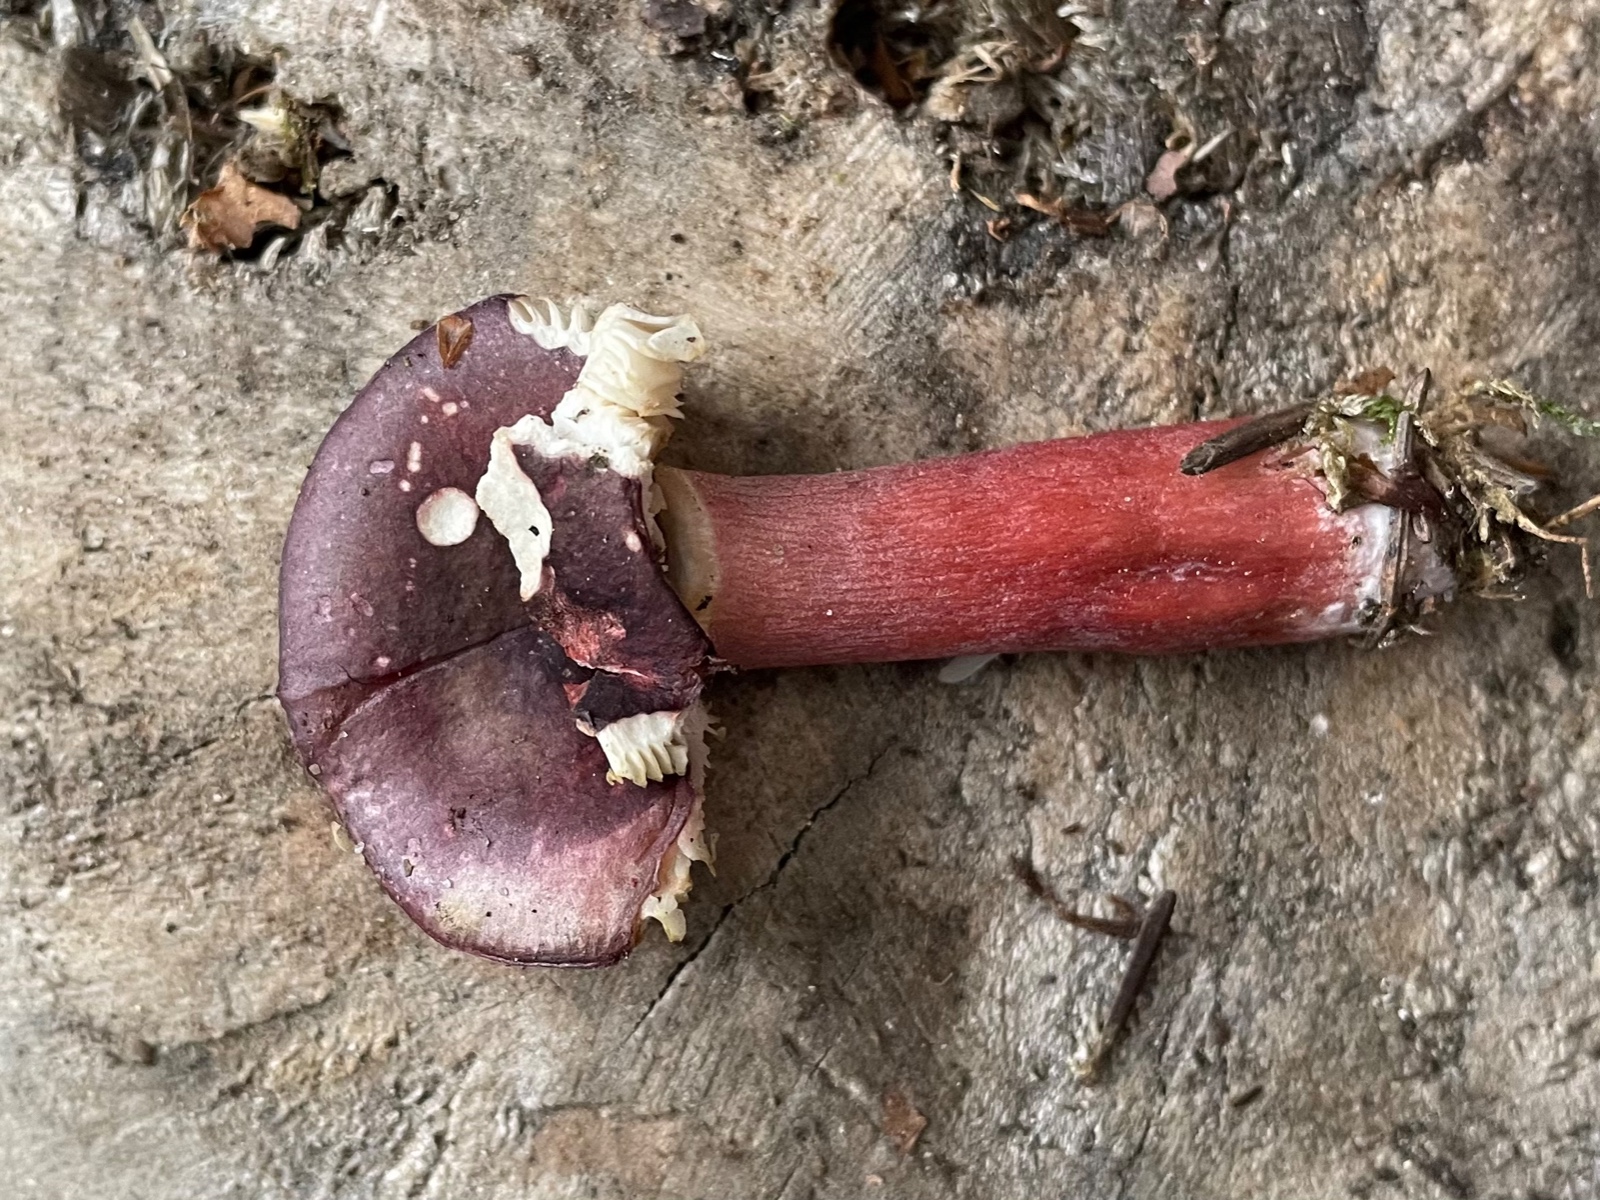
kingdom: Fungi
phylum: Basidiomycota
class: Agaricomycetes
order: Russulales
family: Russulaceae
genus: Russula
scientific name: Russula queletii
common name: Quélets skørhat
